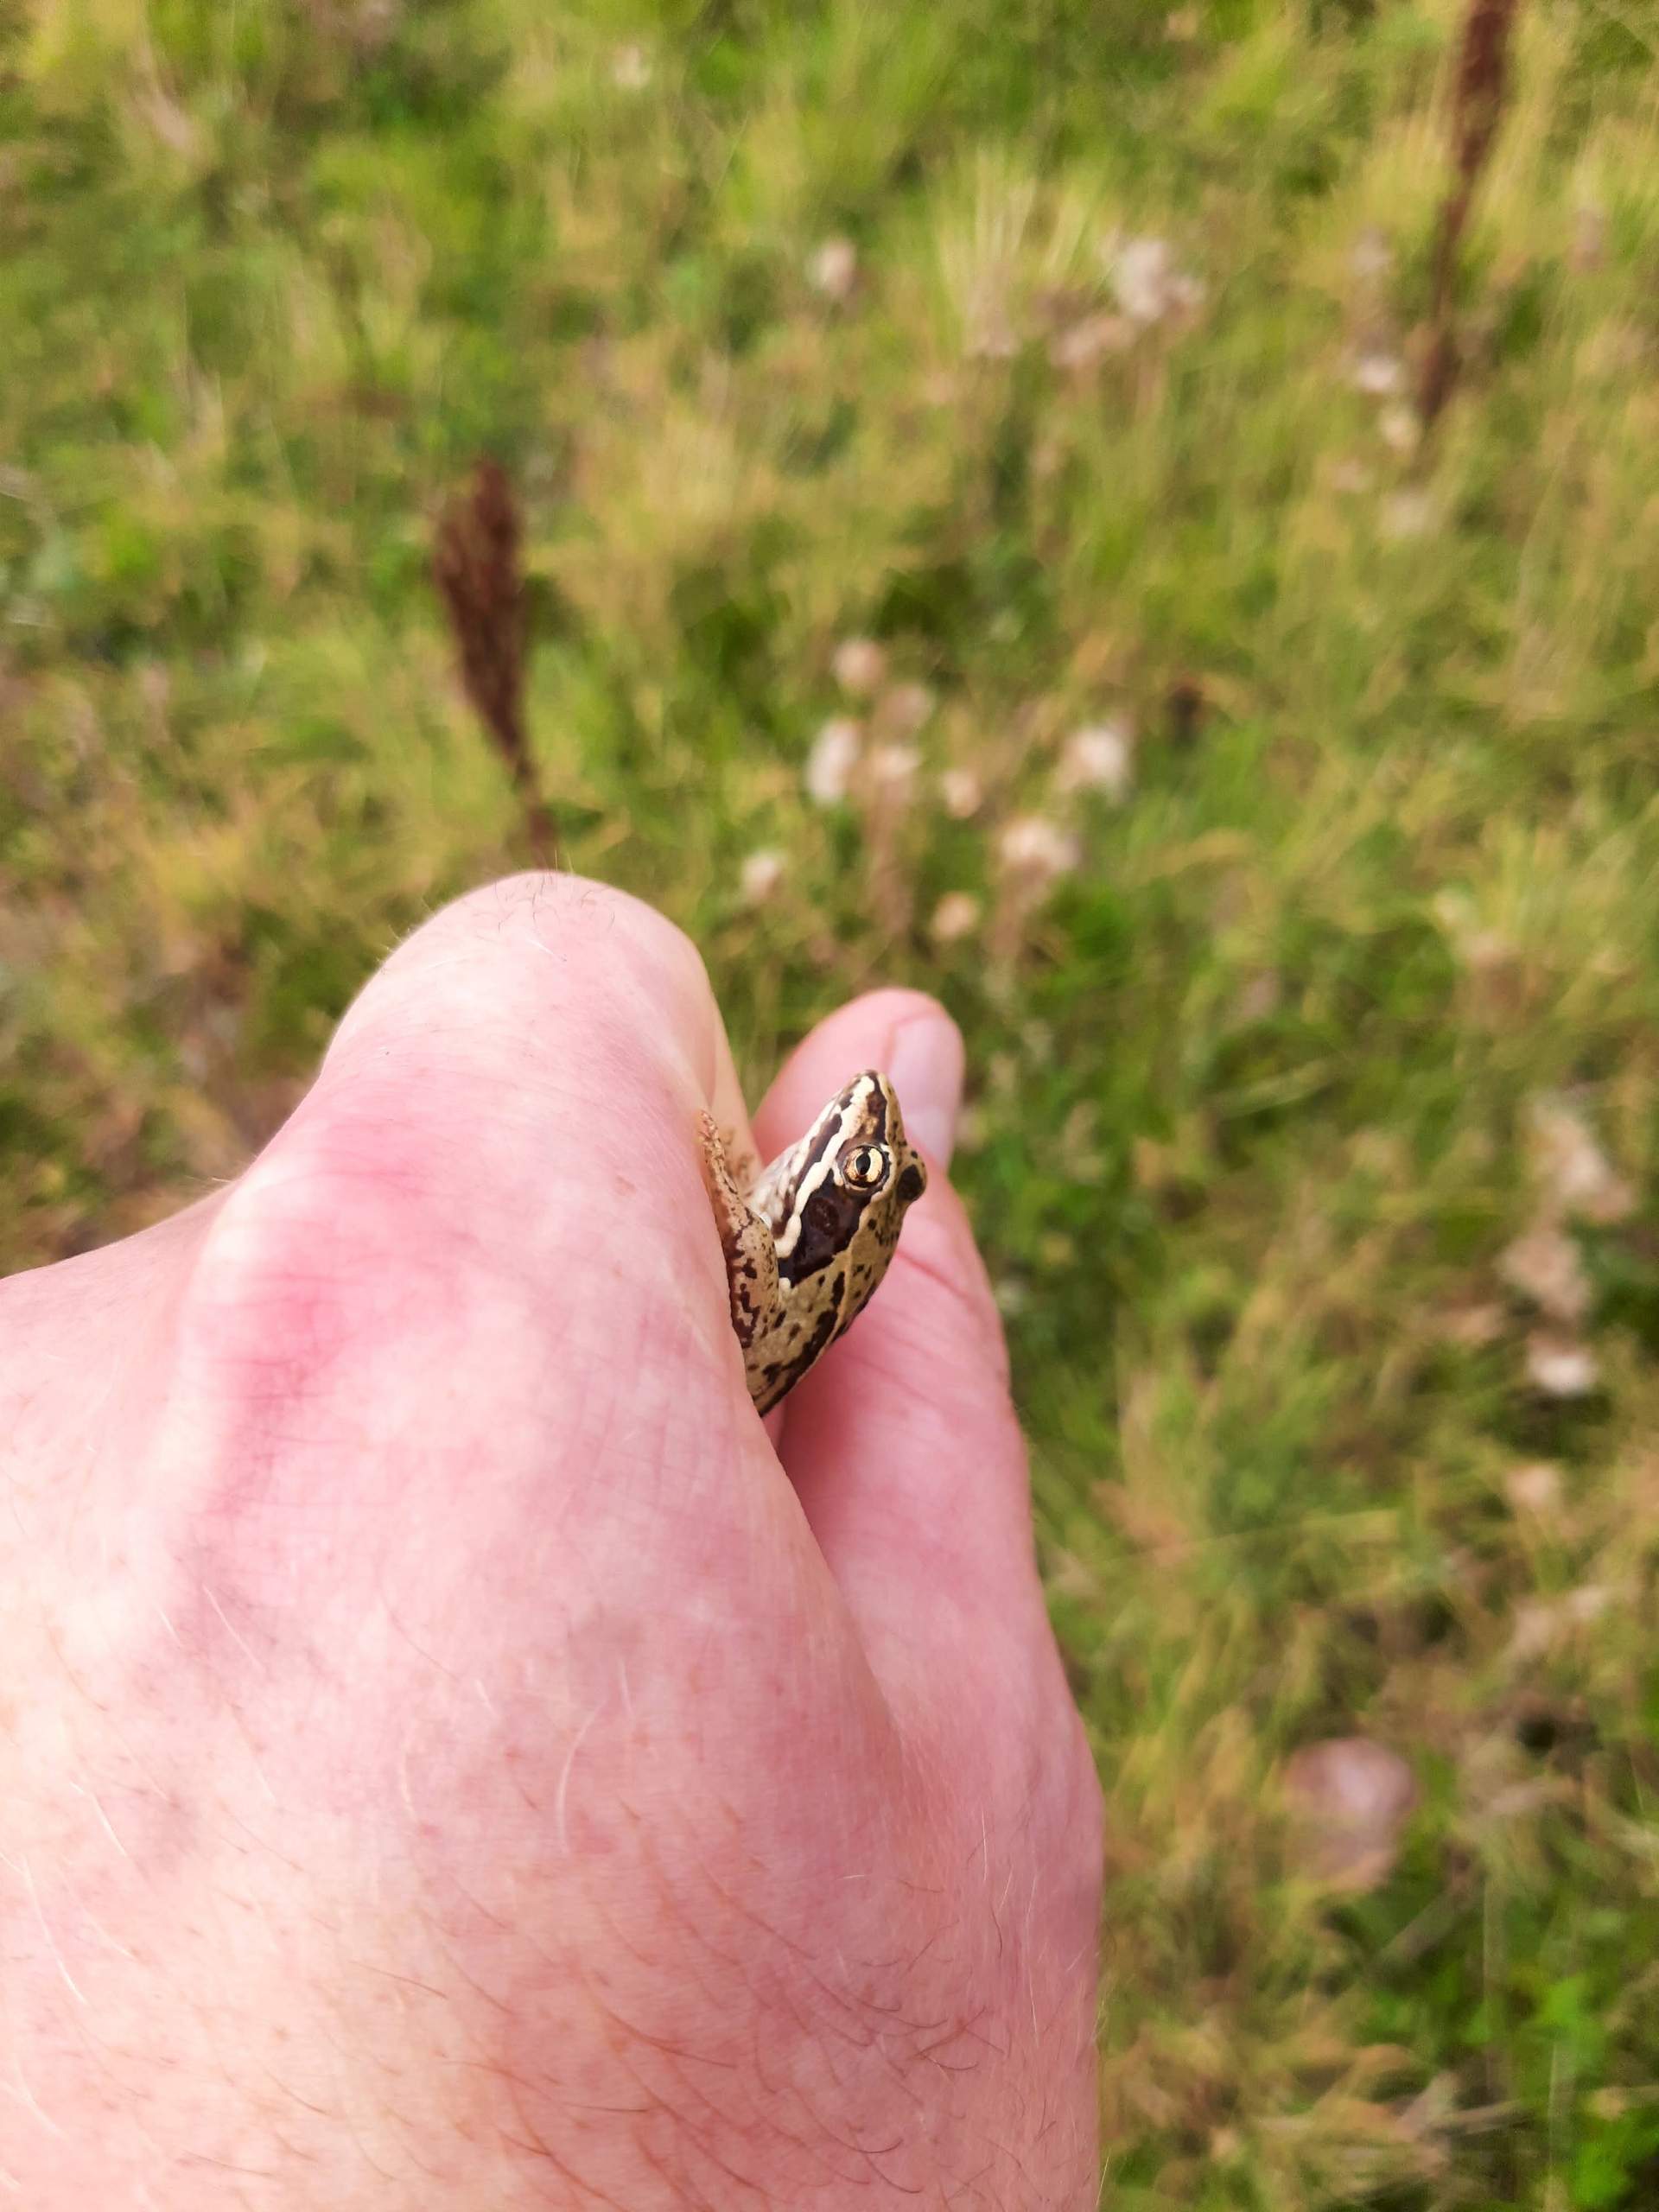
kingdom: Animalia
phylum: Chordata
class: Amphibia
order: Anura
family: Ranidae
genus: Rana
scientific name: Rana arvalis
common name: Spidssnudet frø
